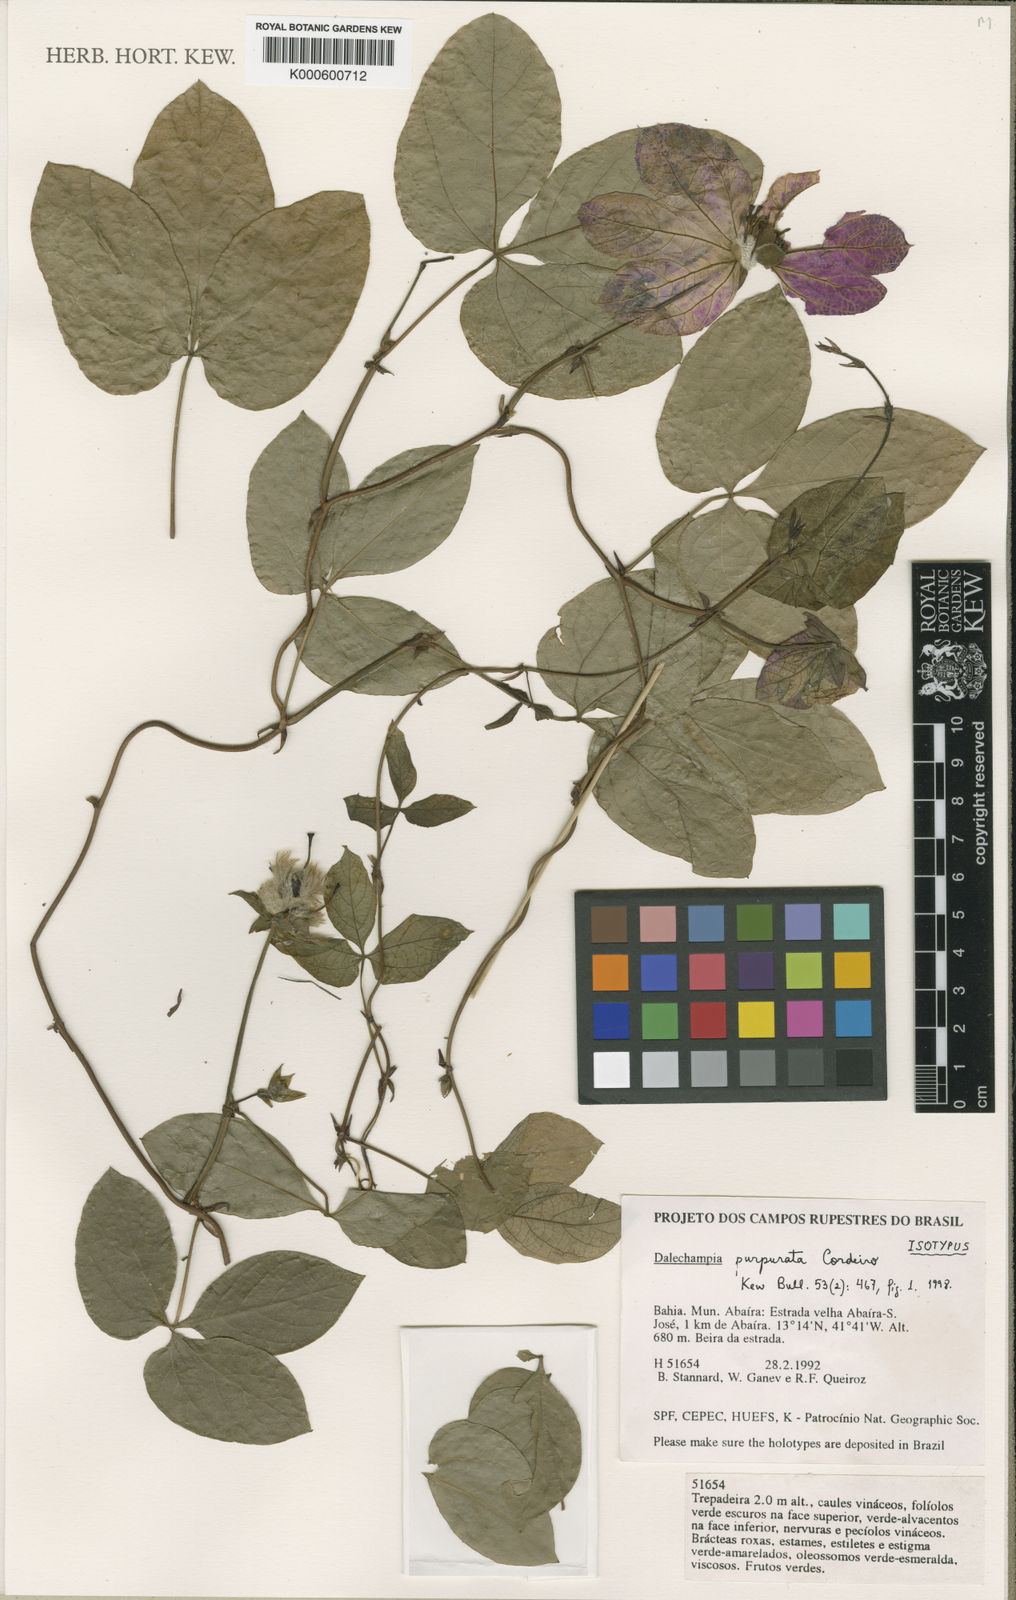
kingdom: Plantae
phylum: Tracheophyta
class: Magnoliopsida
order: Malpighiales
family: Euphorbiaceae
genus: Dalechampia
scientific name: Dalechampia purpurata
